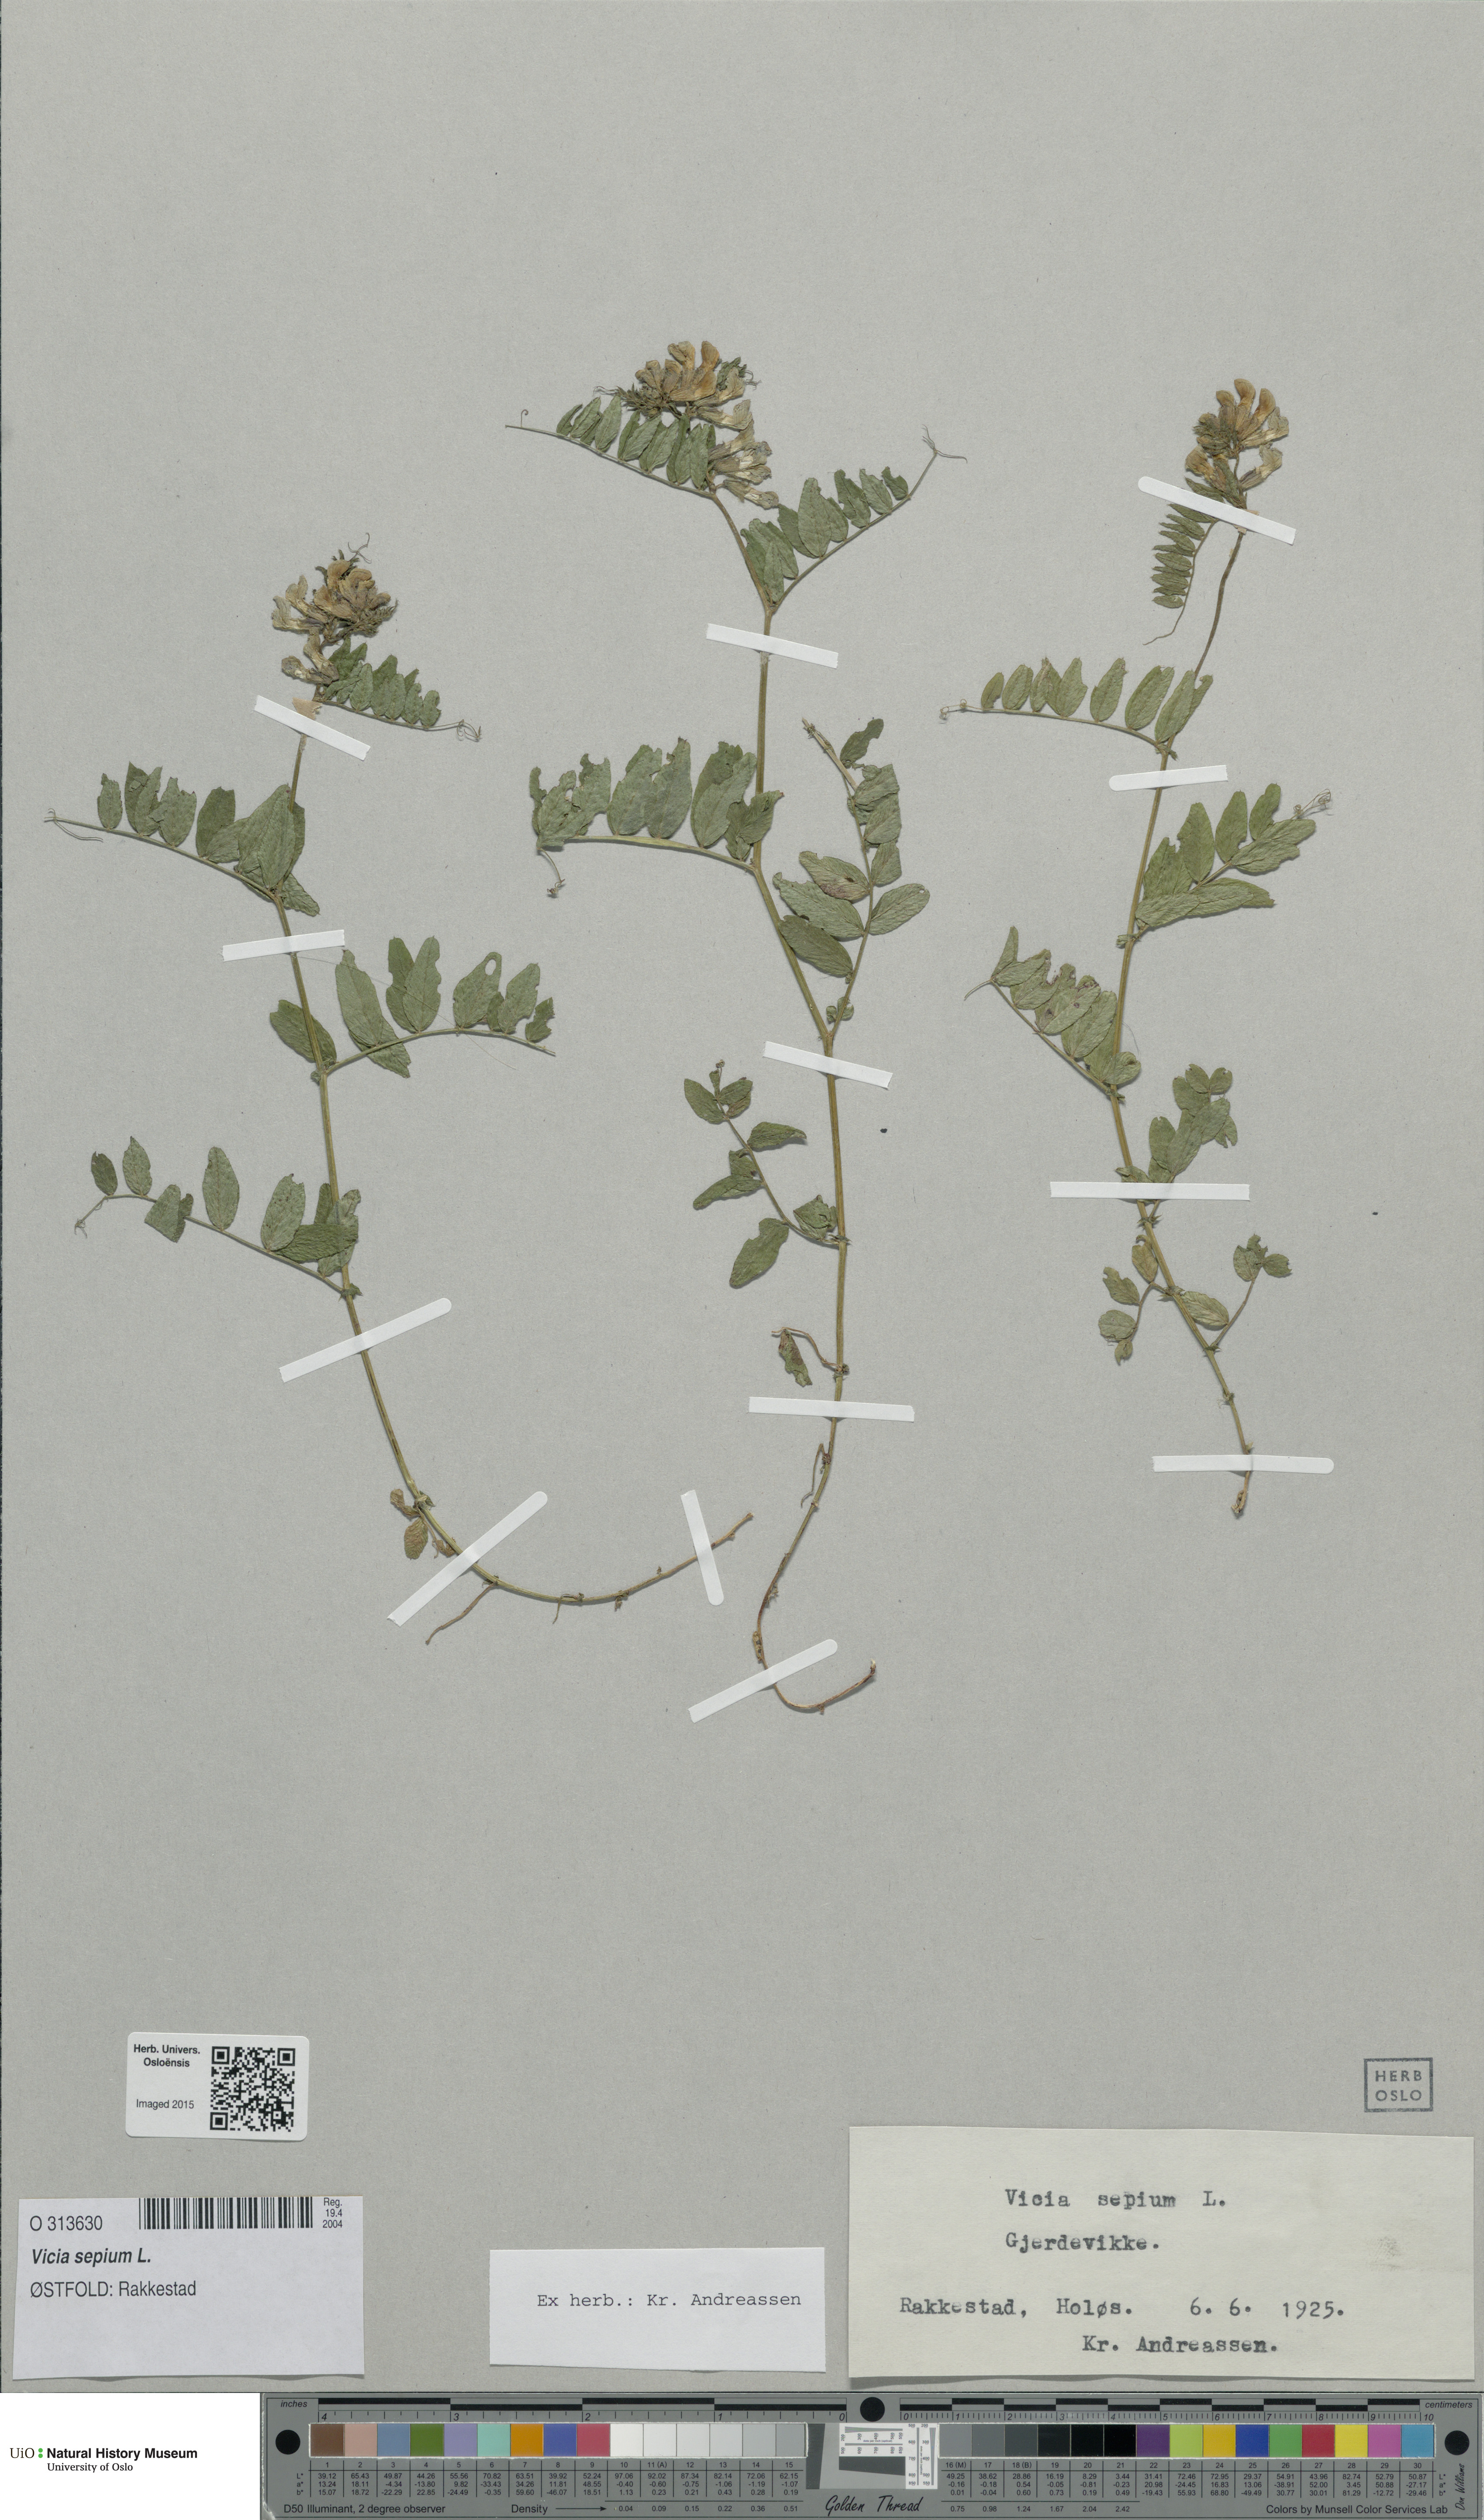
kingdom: Plantae
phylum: Tracheophyta
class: Magnoliopsida
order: Fabales
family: Fabaceae
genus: Vicia
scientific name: Vicia sepium
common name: Bush vetch
